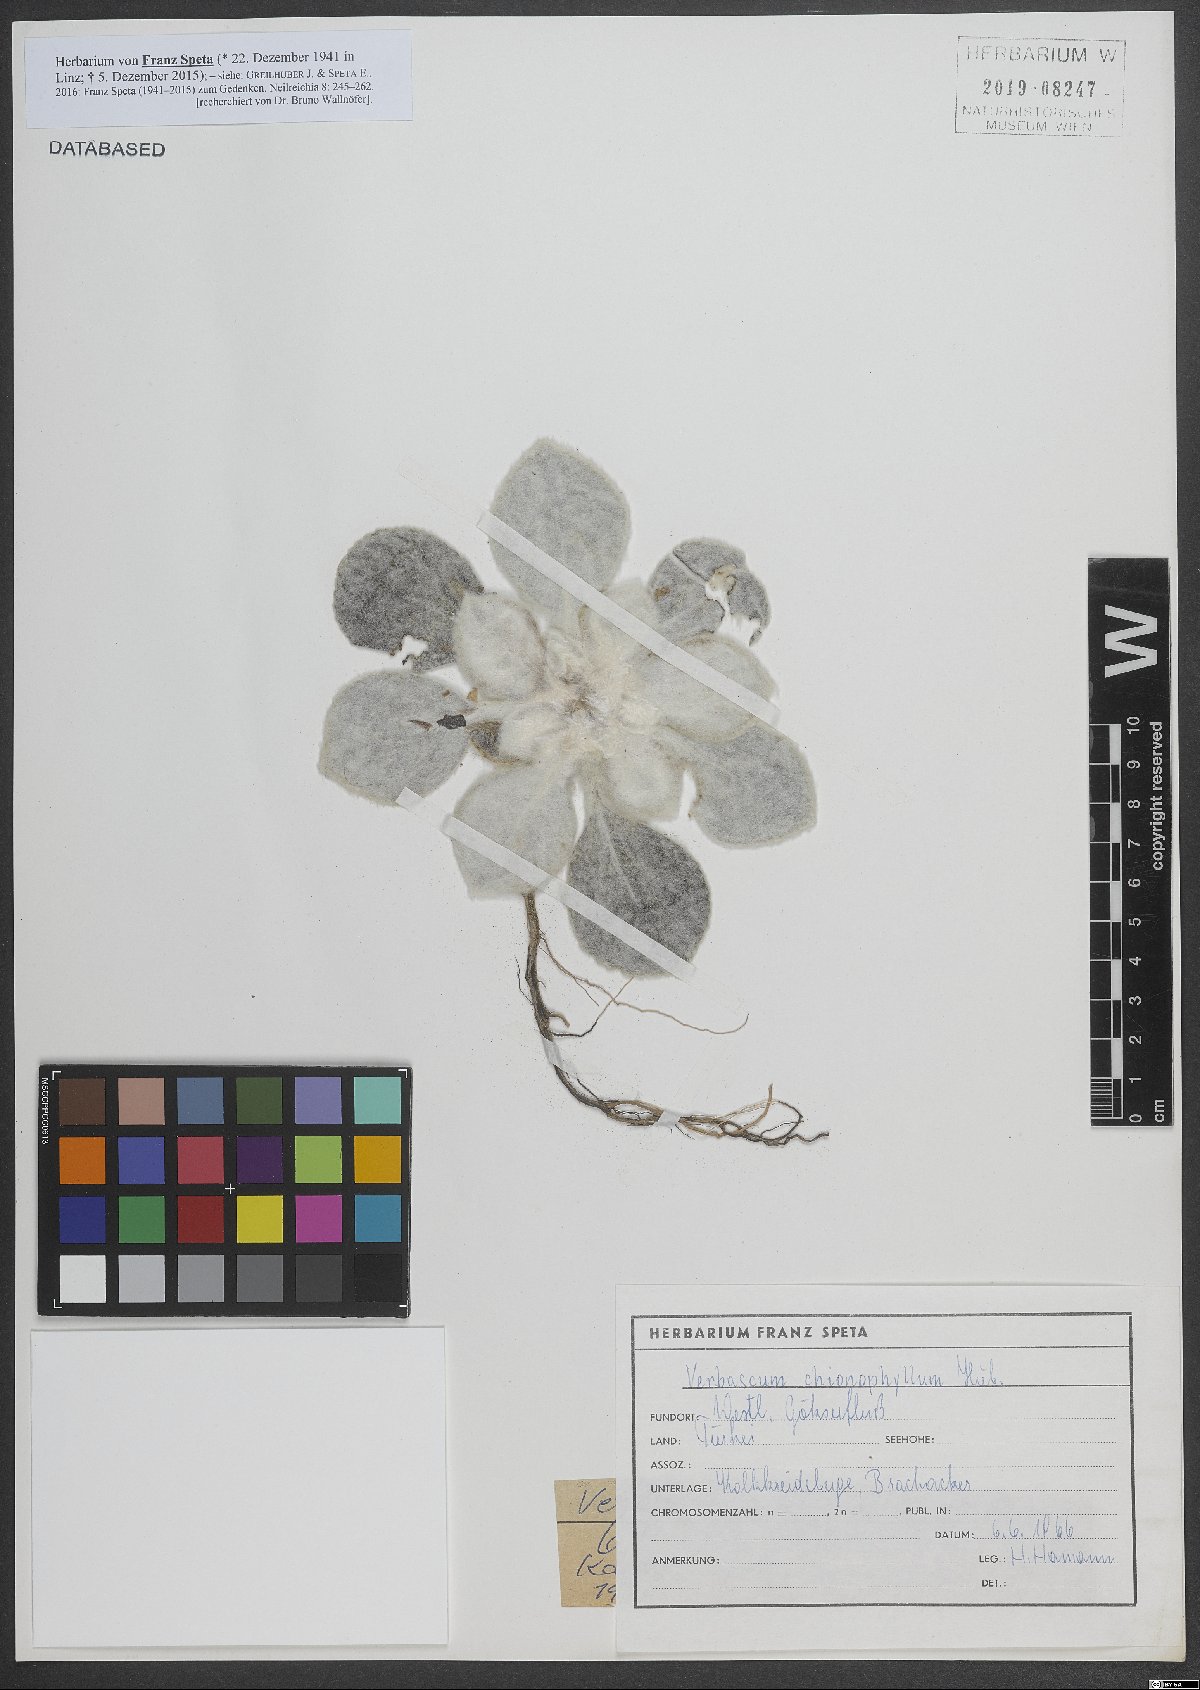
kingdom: Plantae
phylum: Tracheophyta
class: Magnoliopsida
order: Lamiales
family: Scrophulariaceae
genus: Verbascum
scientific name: Verbascum chionophyllum
